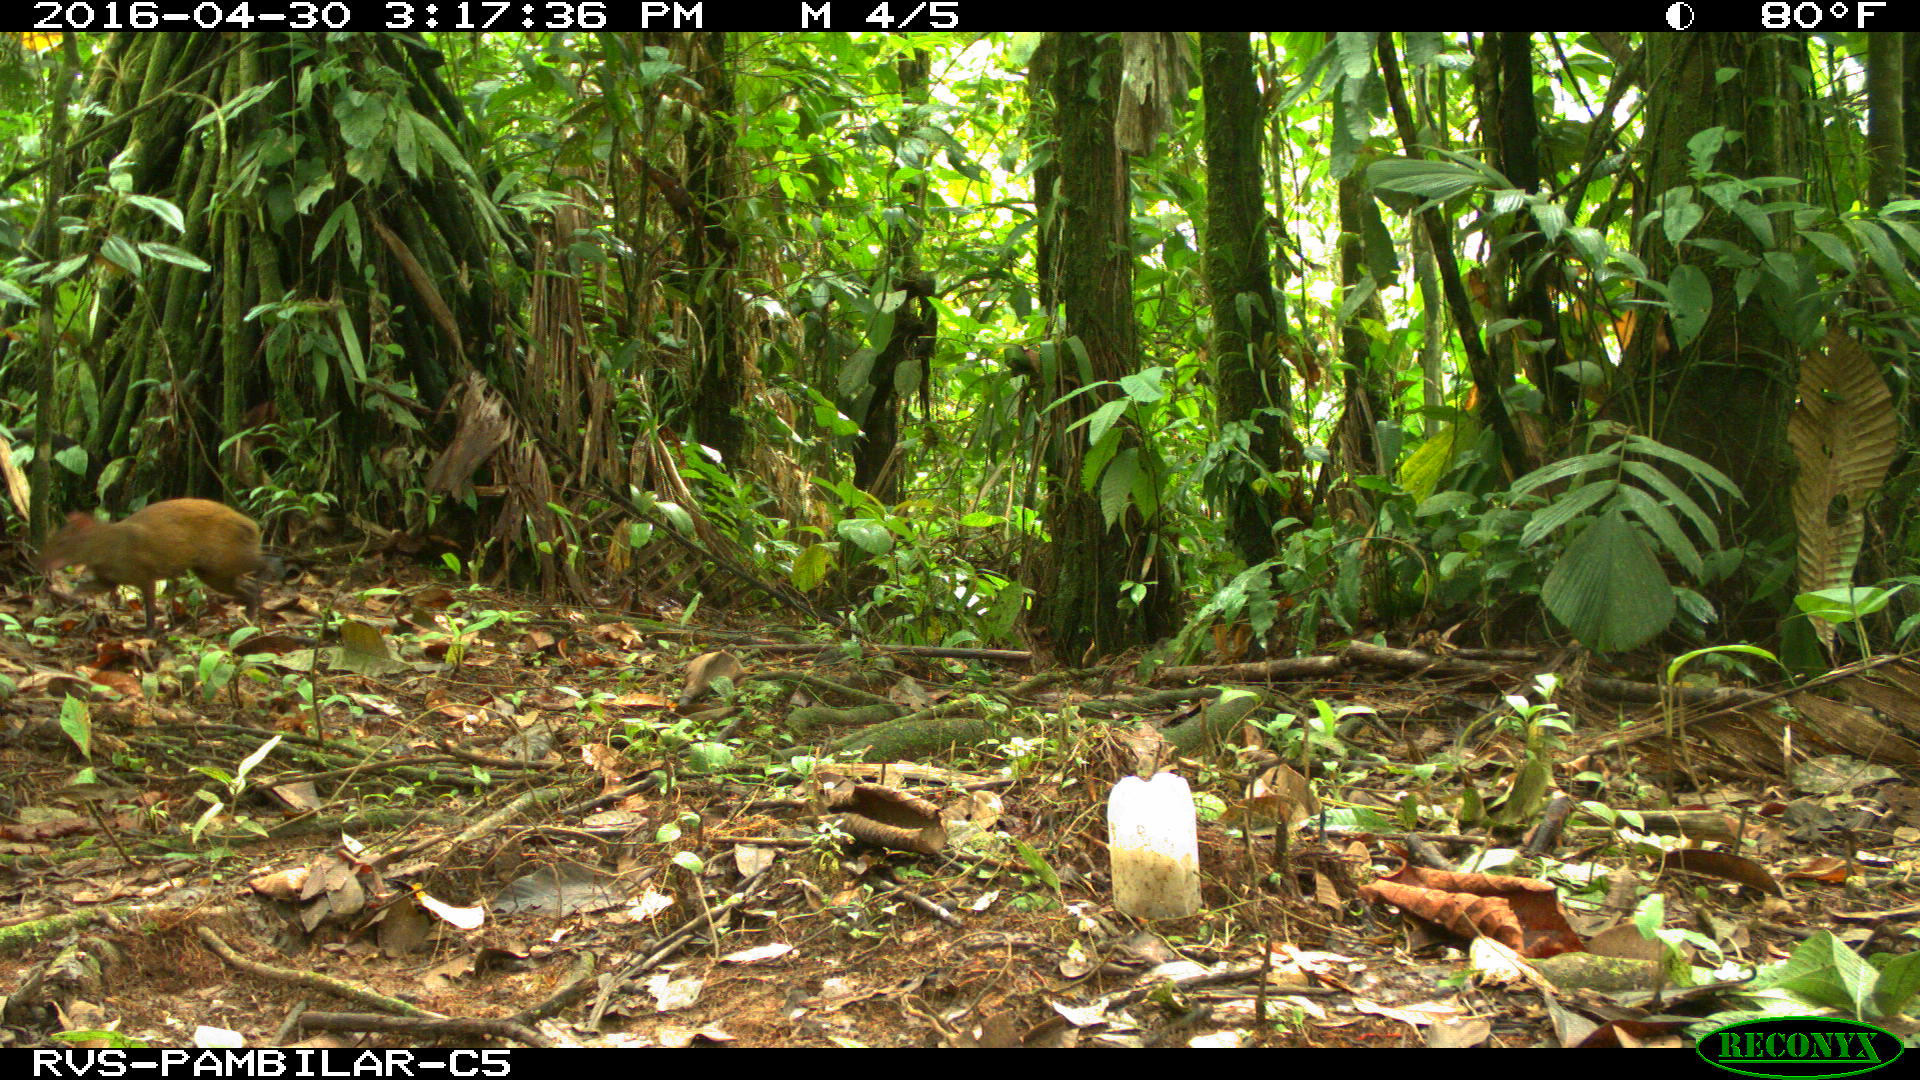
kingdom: Animalia
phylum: Chordata
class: Mammalia
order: Rodentia
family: Dasyproctidae
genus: Dasyprocta
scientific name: Dasyprocta punctata
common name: Central american agouti
